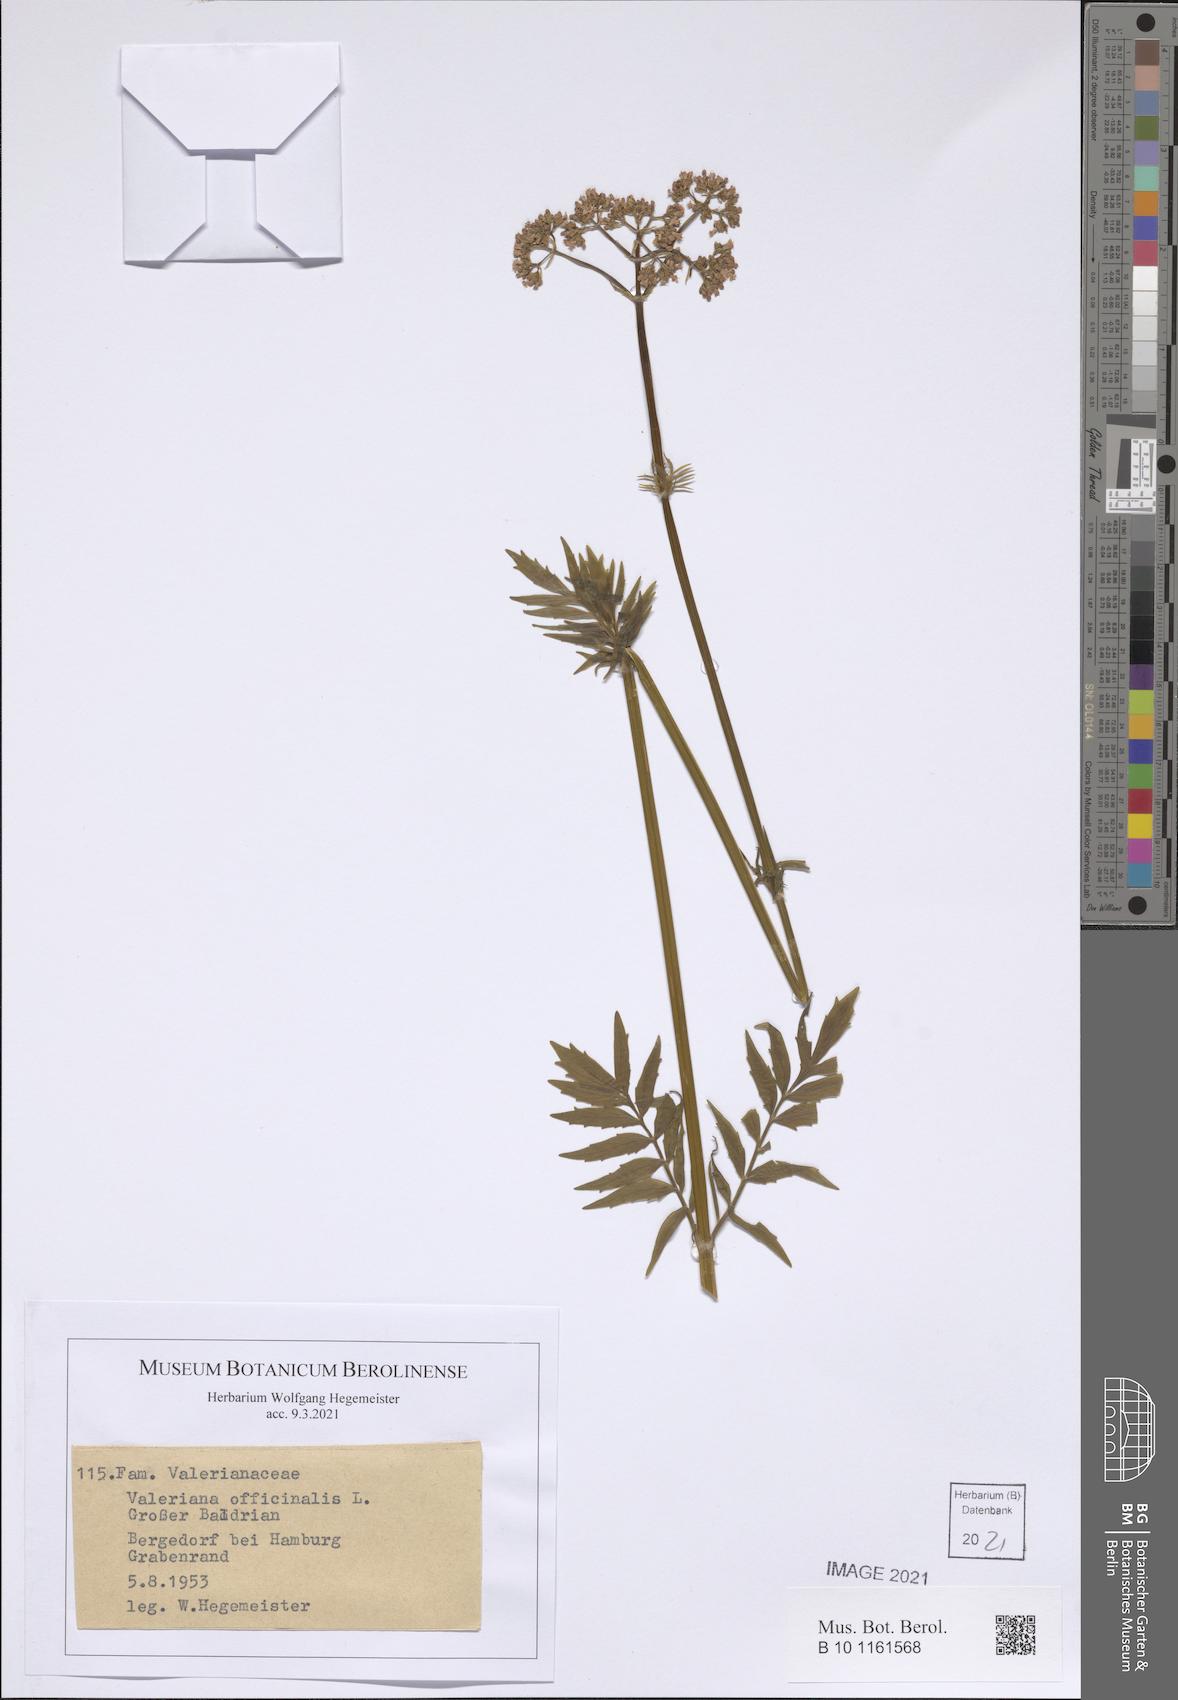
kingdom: Plantae
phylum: Tracheophyta
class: Magnoliopsida
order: Dipsacales
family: Caprifoliaceae
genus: Valeriana
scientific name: Valeriana officinalis
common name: Common valerian
